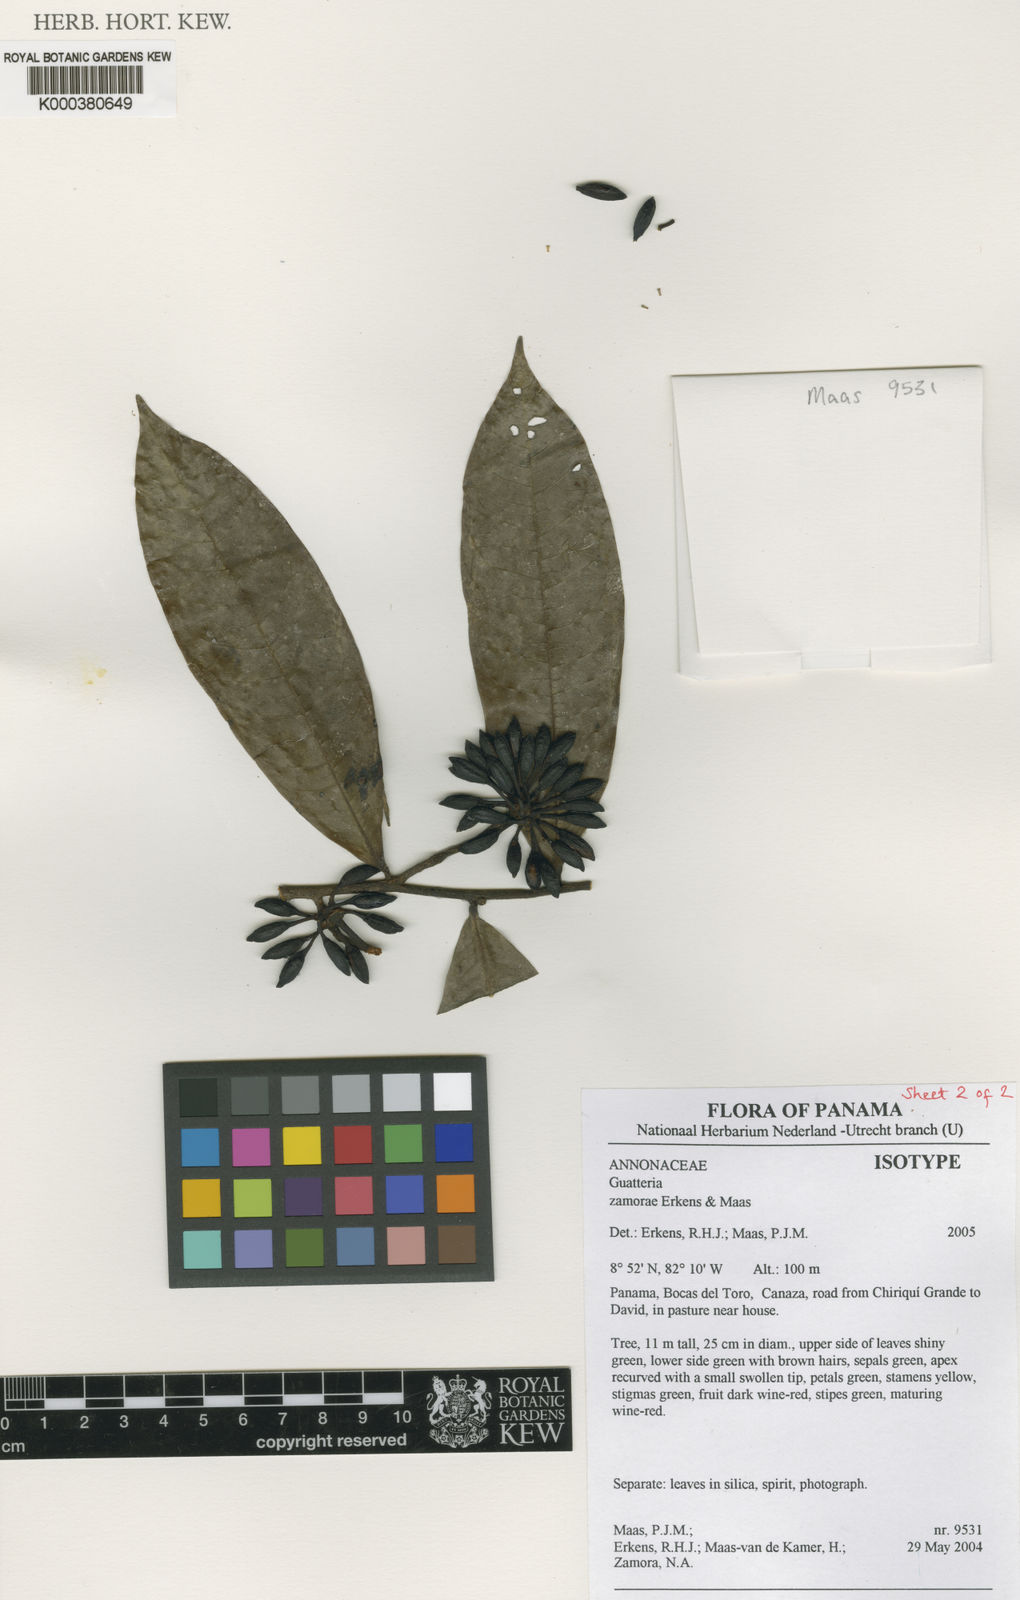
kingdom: Plantae
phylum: Tracheophyta
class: Magnoliopsida
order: Magnoliales
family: Annonaceae
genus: Guatteria
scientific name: Guatteria zamorae
